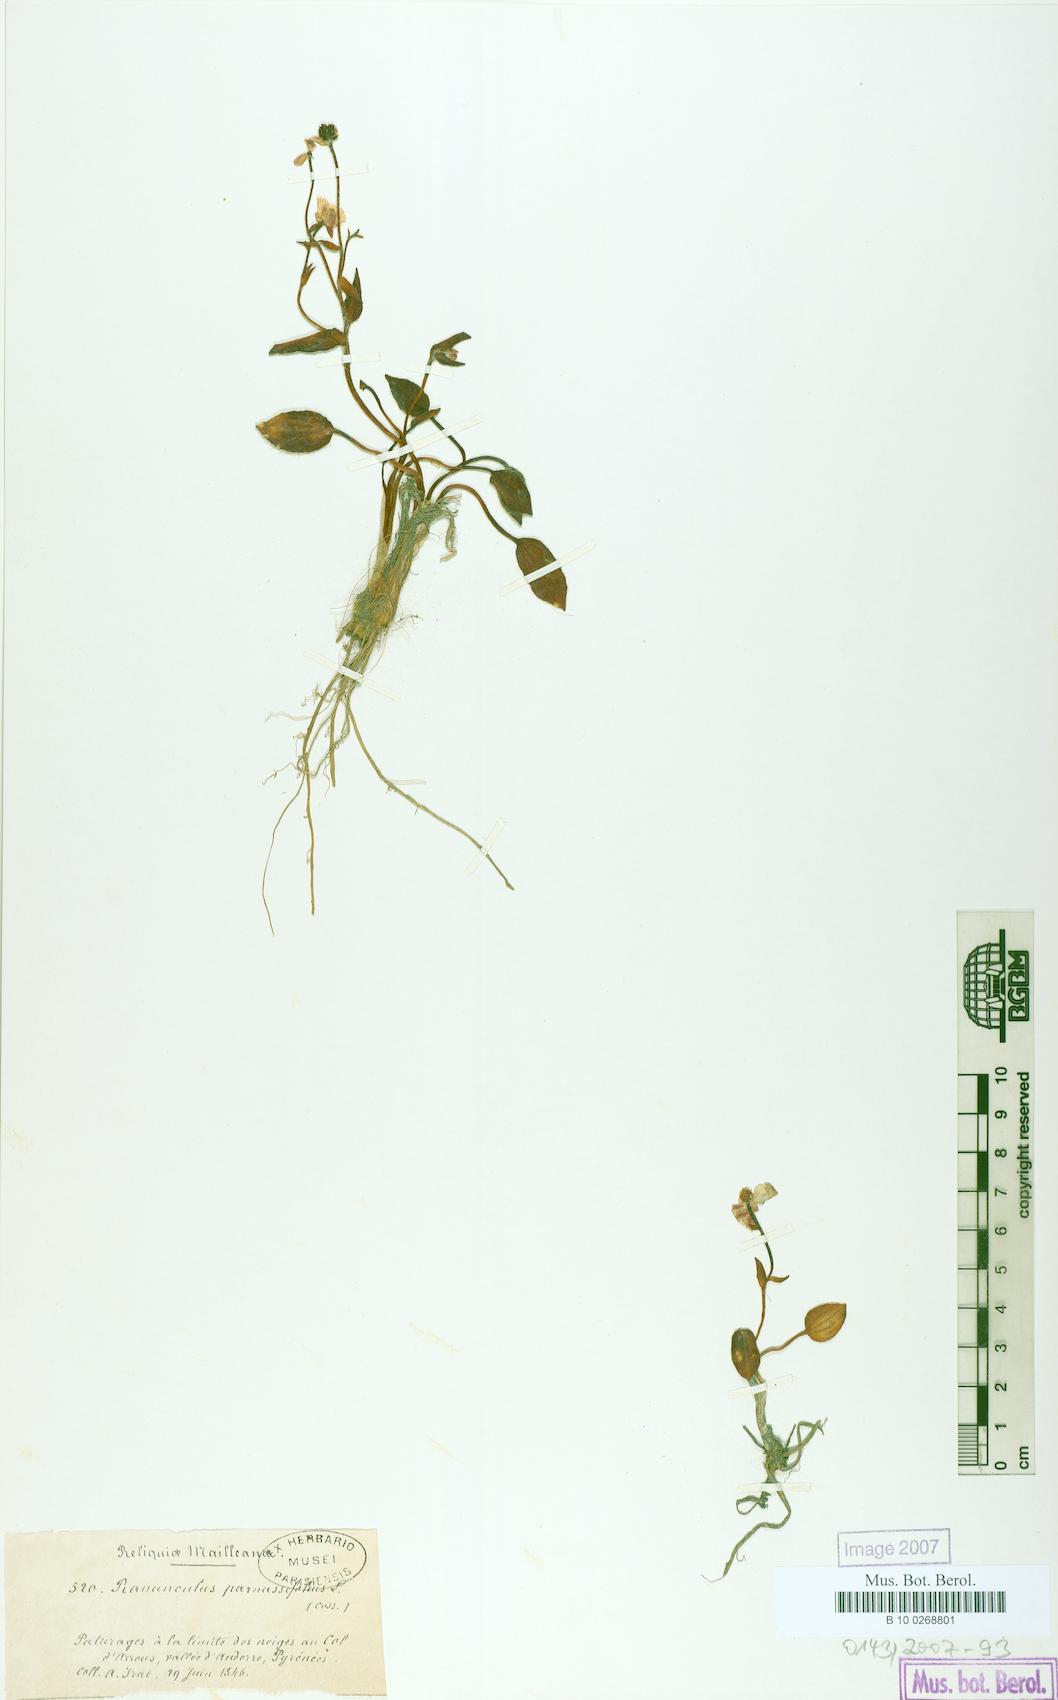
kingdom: Plantae
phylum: Tracheophyta
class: Magnoliopsida
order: Ranunculales
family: Ranunculaceae
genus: Ranunculus
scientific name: Ranunculus parnassiifolius
